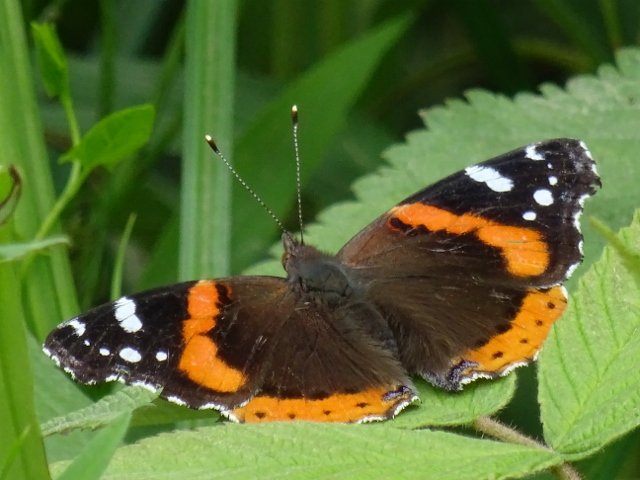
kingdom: Animalia
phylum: Arthropoda
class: Insecta
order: Lepidoptera
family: Nymphalidae
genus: Vanessa
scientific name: Vanessa atalanta
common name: Red Admiral
